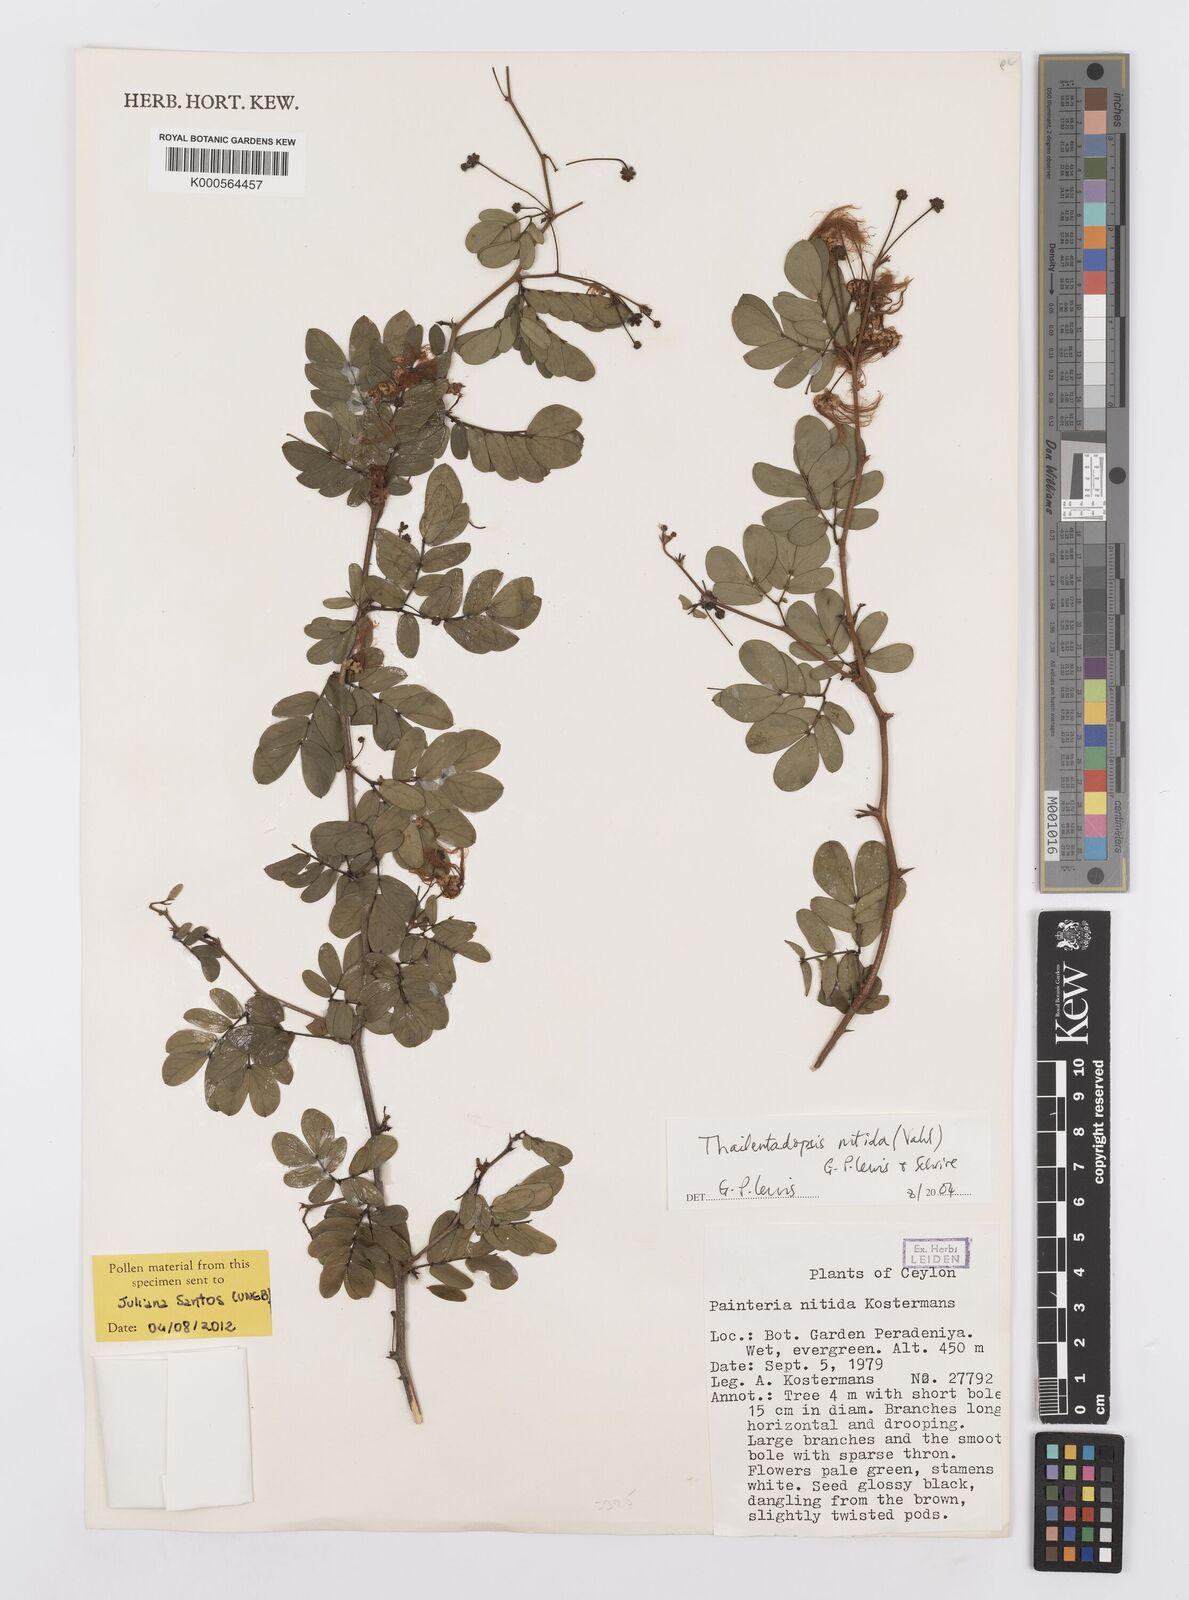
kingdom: Plantae
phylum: Tracheophyta
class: Magnoliopsida
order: Fabales
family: Fabaceae
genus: Thailentadopsis
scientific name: Thailentadopsis nitida
